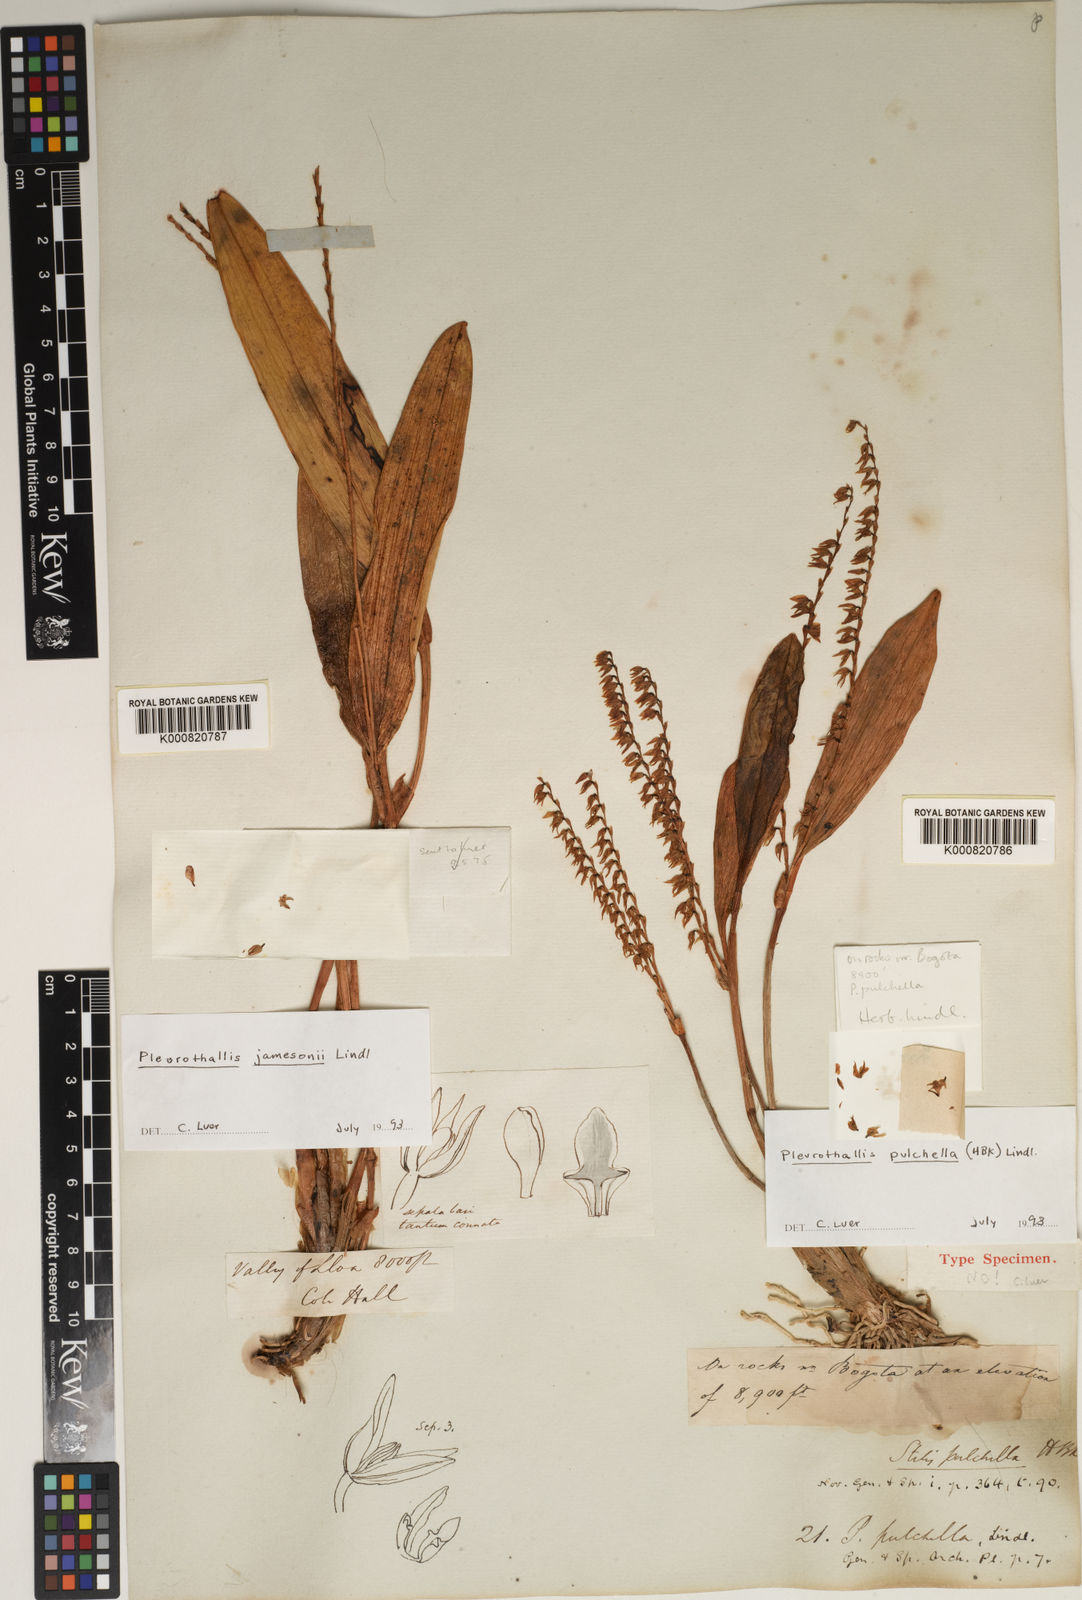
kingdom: Plantae
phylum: Tracheophyta
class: Liliopsida
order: Asparagales
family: Orchidaceae
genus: Stelis
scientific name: Stelis pulchella
